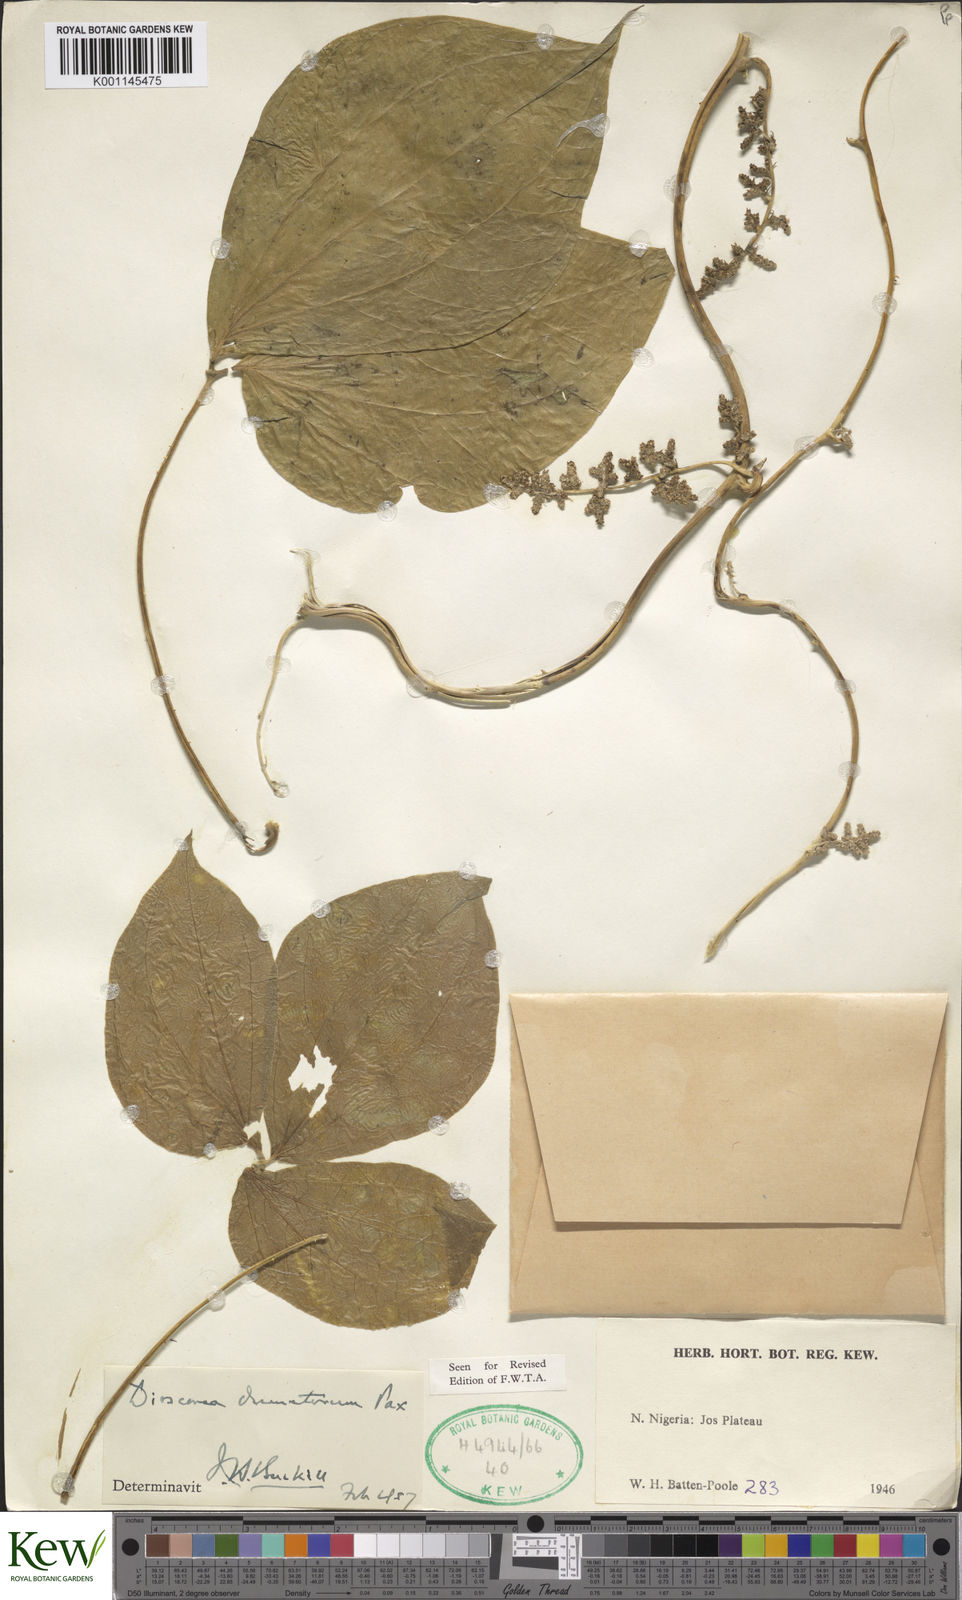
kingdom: Plantae
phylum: Tracheophyta
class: Liliopsida
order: Dioscoreales
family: Dioscoreaceae
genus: Dioscorea
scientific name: Dioscorea dumetorum
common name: African bitter yam
